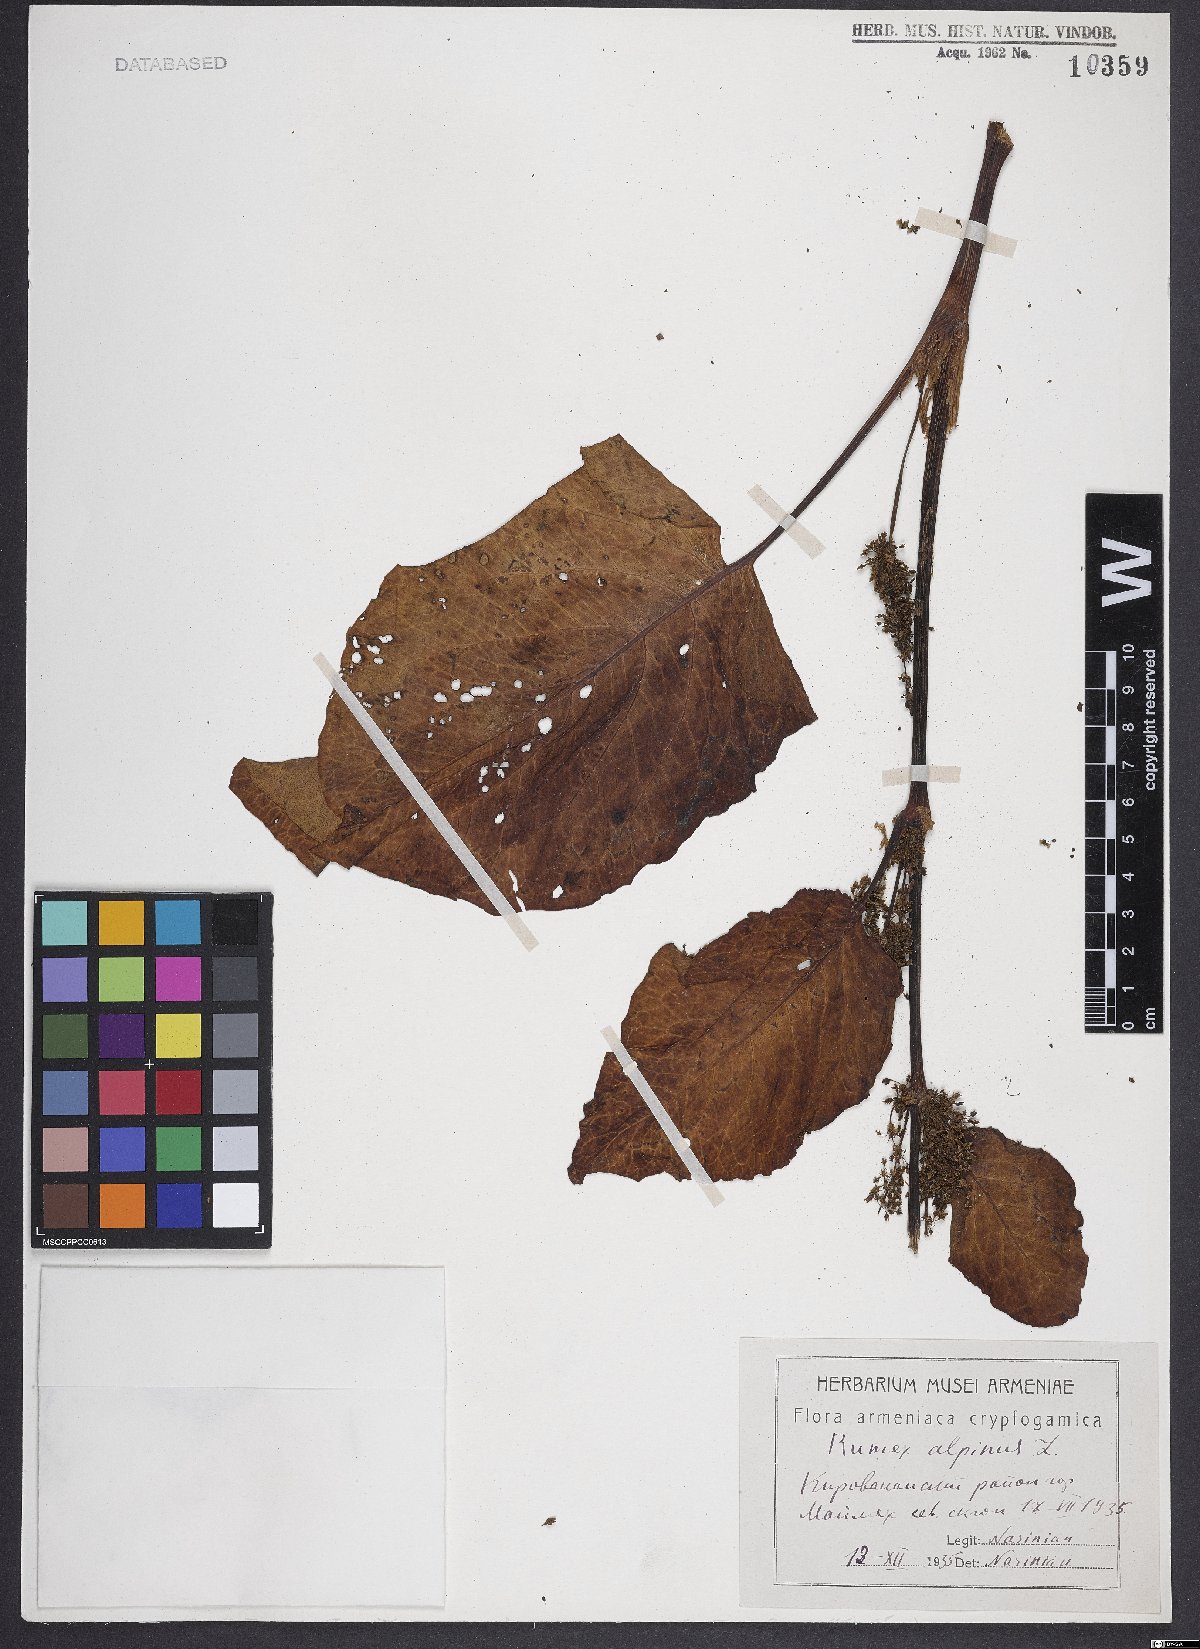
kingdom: Plantae
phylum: Tracheophyta
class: Magnoliopsida
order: Caryophyllales
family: Polygonaceae
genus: Rumex
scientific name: Rumex alpinus
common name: Alpine dock
